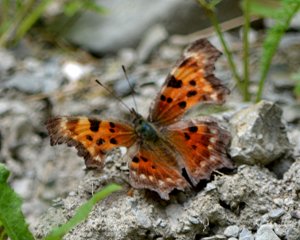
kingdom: Animalia
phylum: Arthropoda
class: Insecta
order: Lepidoptera
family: Nymphalidae
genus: Polygonia
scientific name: Polygonia faunus
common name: Green Comma
